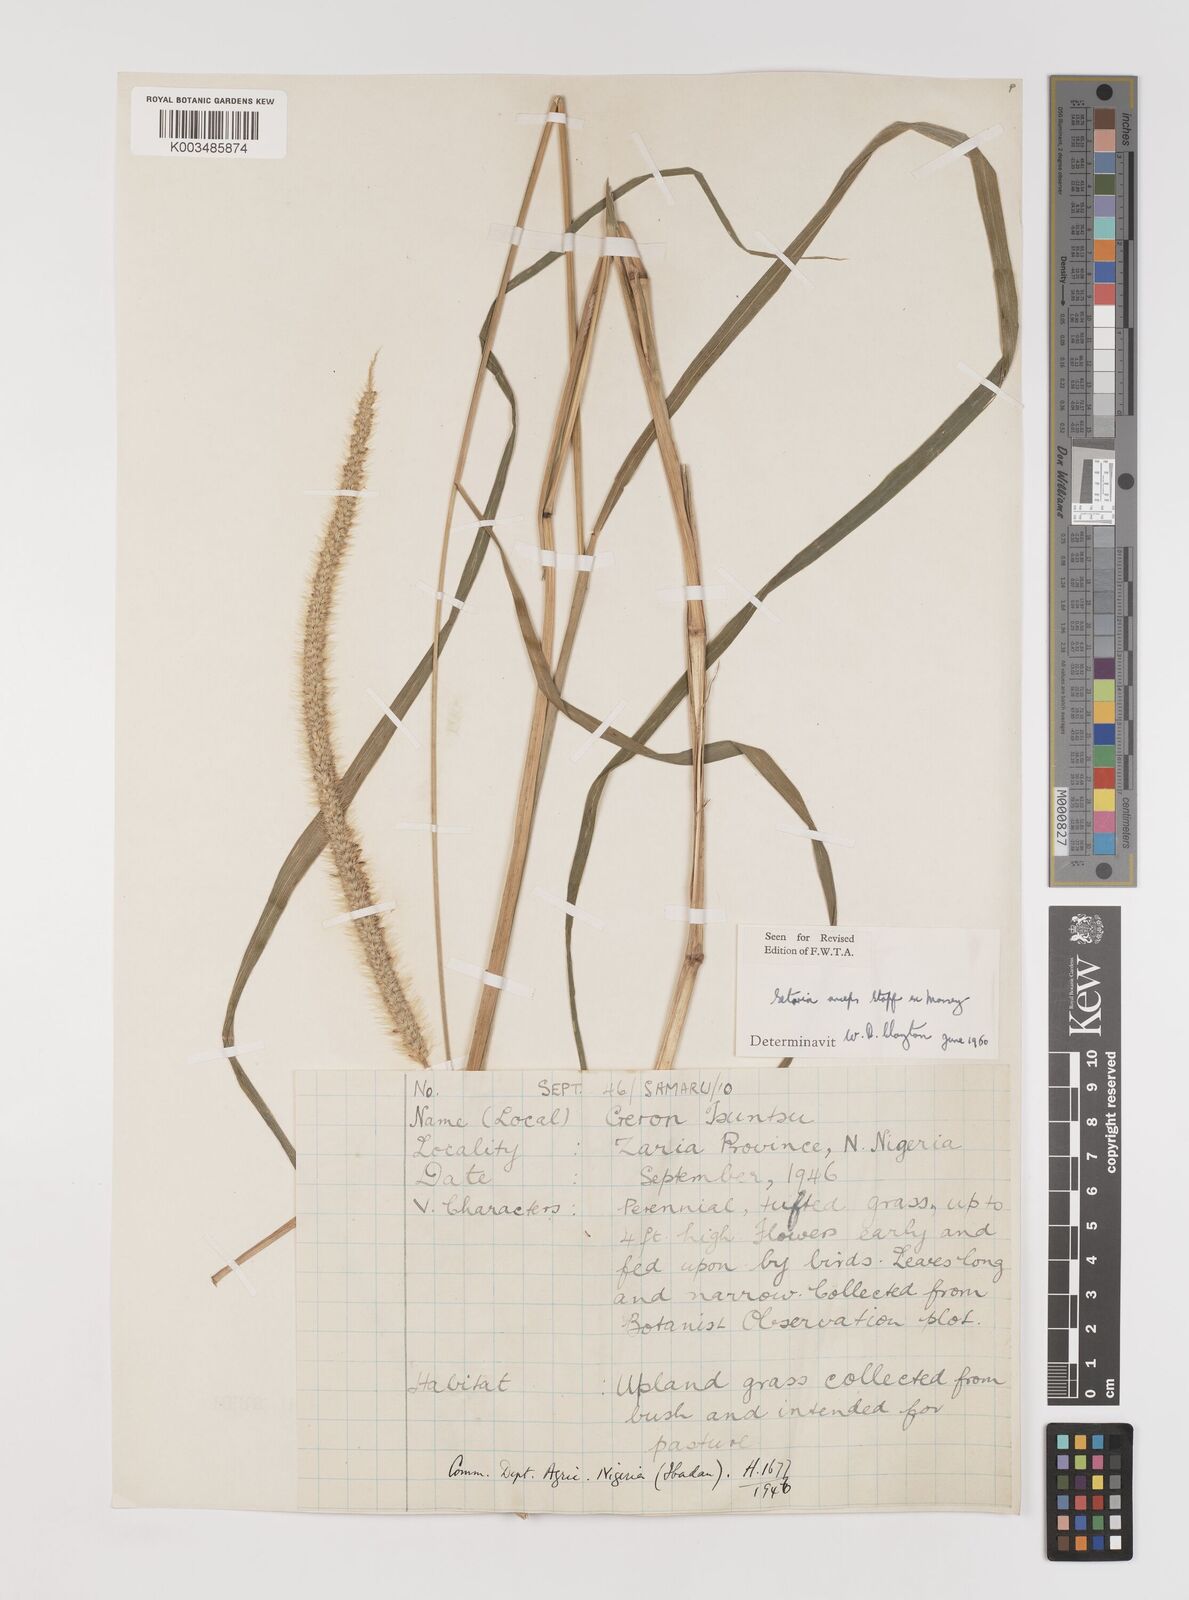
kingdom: Plantae
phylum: Tracheophyta
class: Liliopsida
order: Poales
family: Poaceae
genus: Setaria
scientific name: Setaria sphacelata
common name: African bristlegrass
